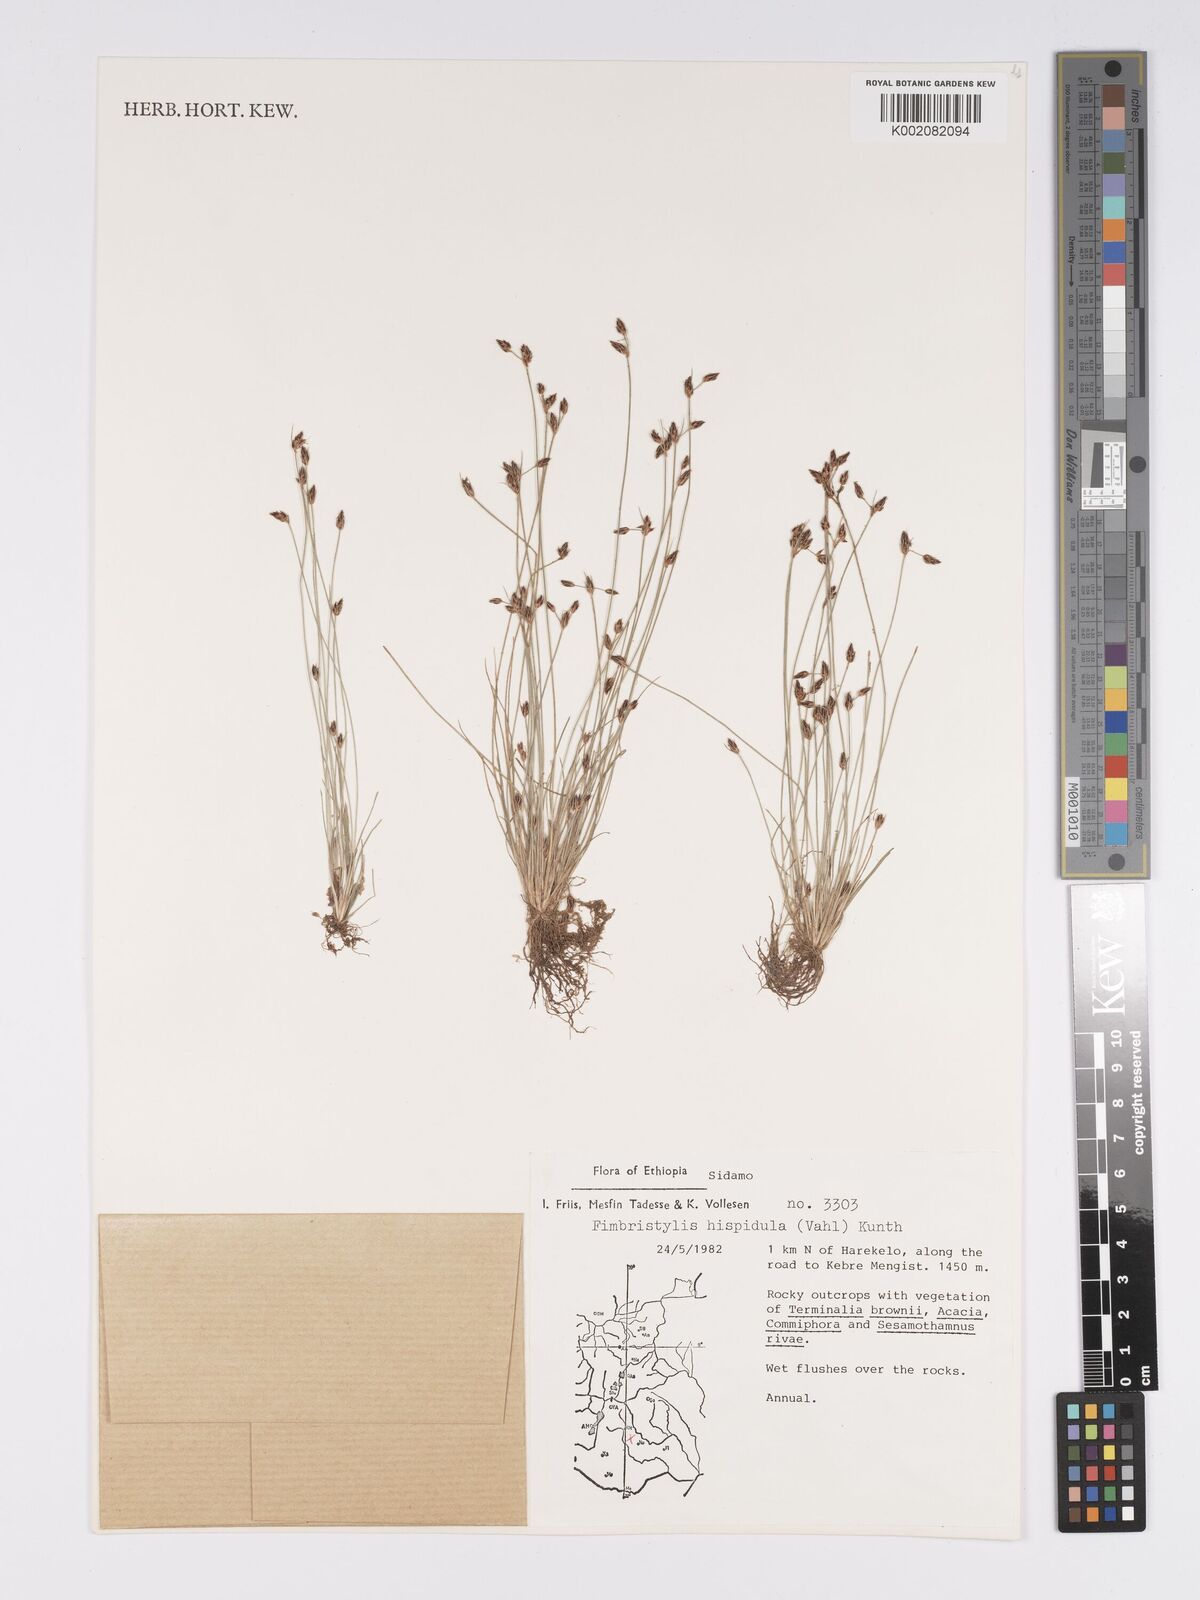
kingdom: Plantae
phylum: Tracheophyta
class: Liliopsida
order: Poales
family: Cyperaceae
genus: Bulbostylis
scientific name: Bulbostylis hispidula
